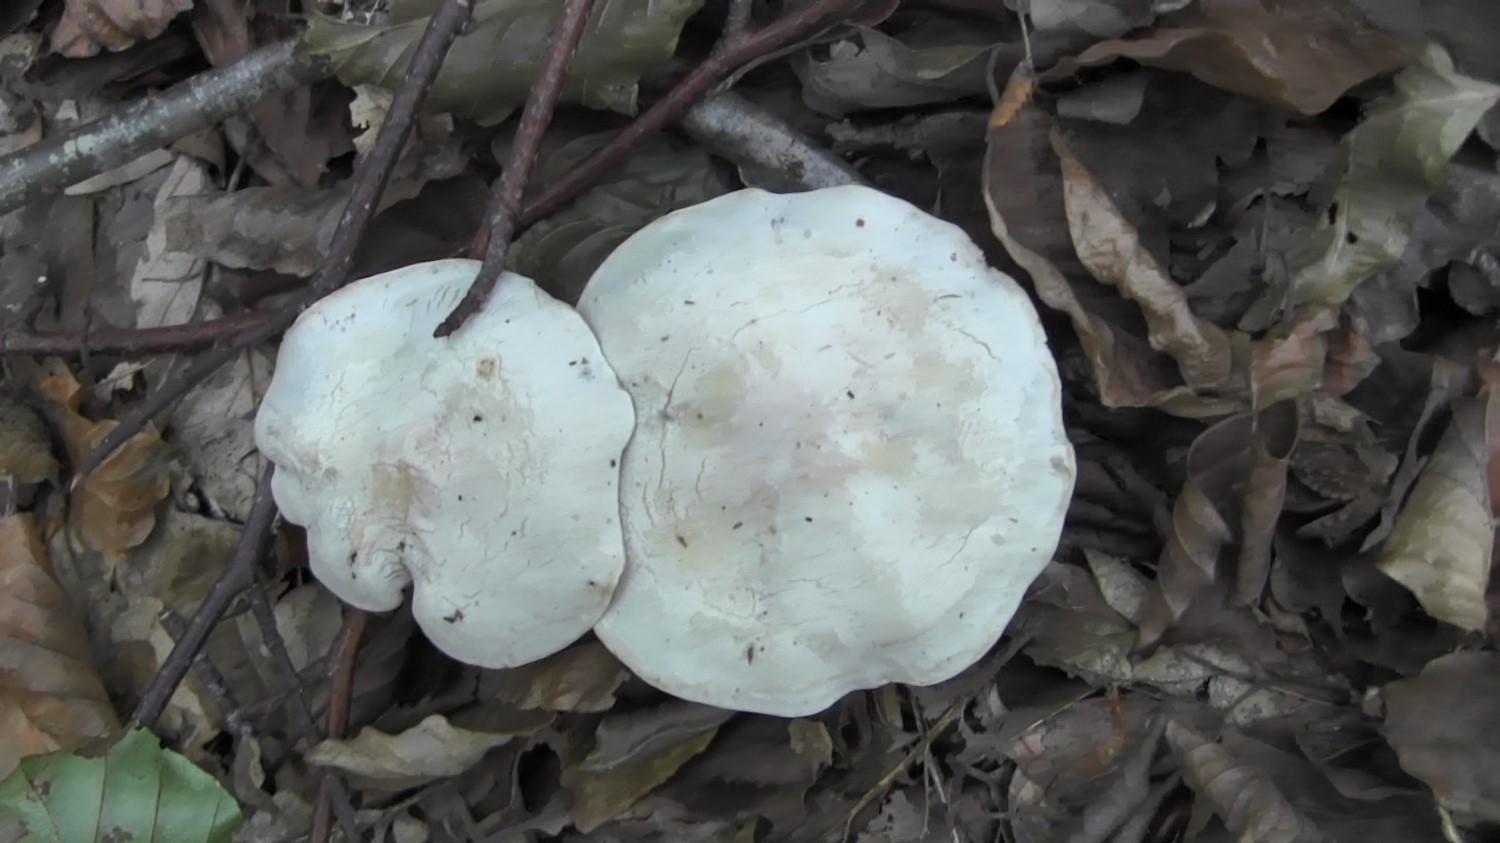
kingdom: Fungi
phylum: Basidiomycota
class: Agaricomycetes
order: Agaricales
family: Tricholomataceae
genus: Clitocybe
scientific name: Clitocybe phyllophila
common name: løv-tragthat
